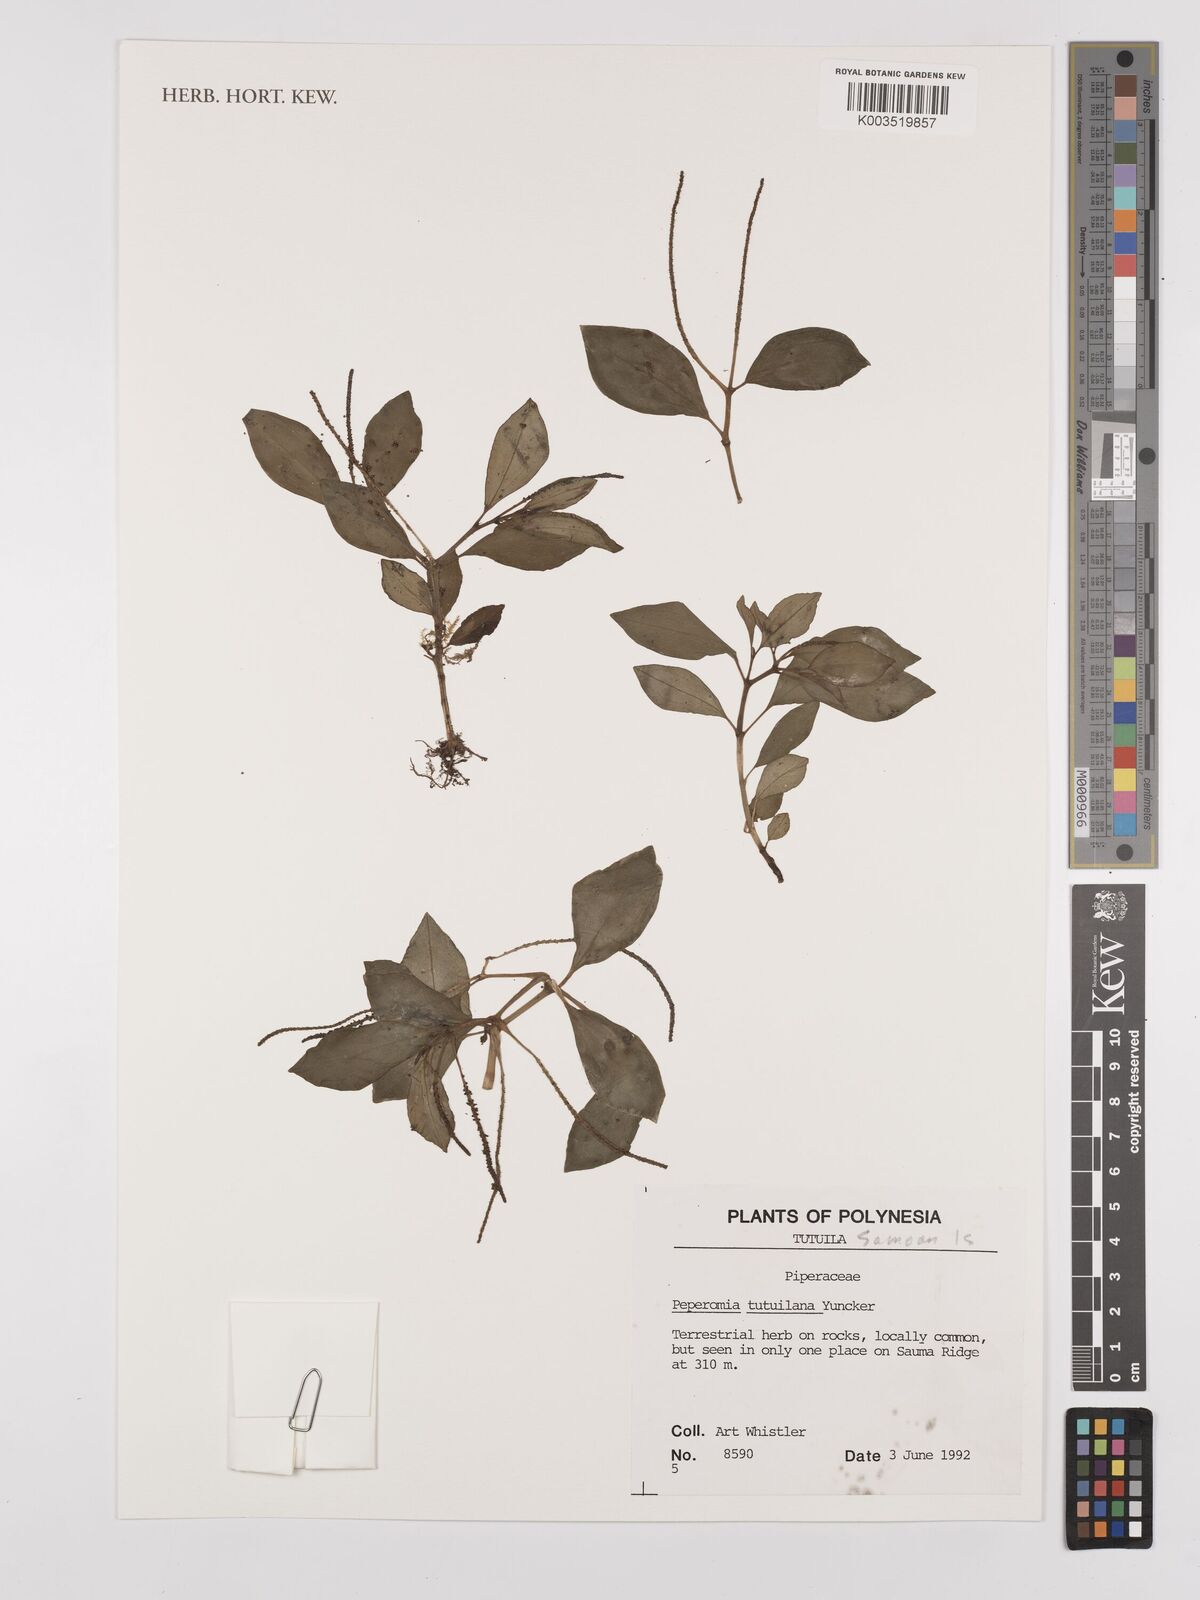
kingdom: Plantae
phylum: Tracheophyta
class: Magnoliopsida
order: Piperales
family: Piperaceae
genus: Peperomia
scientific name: Peperomia tutuilana
